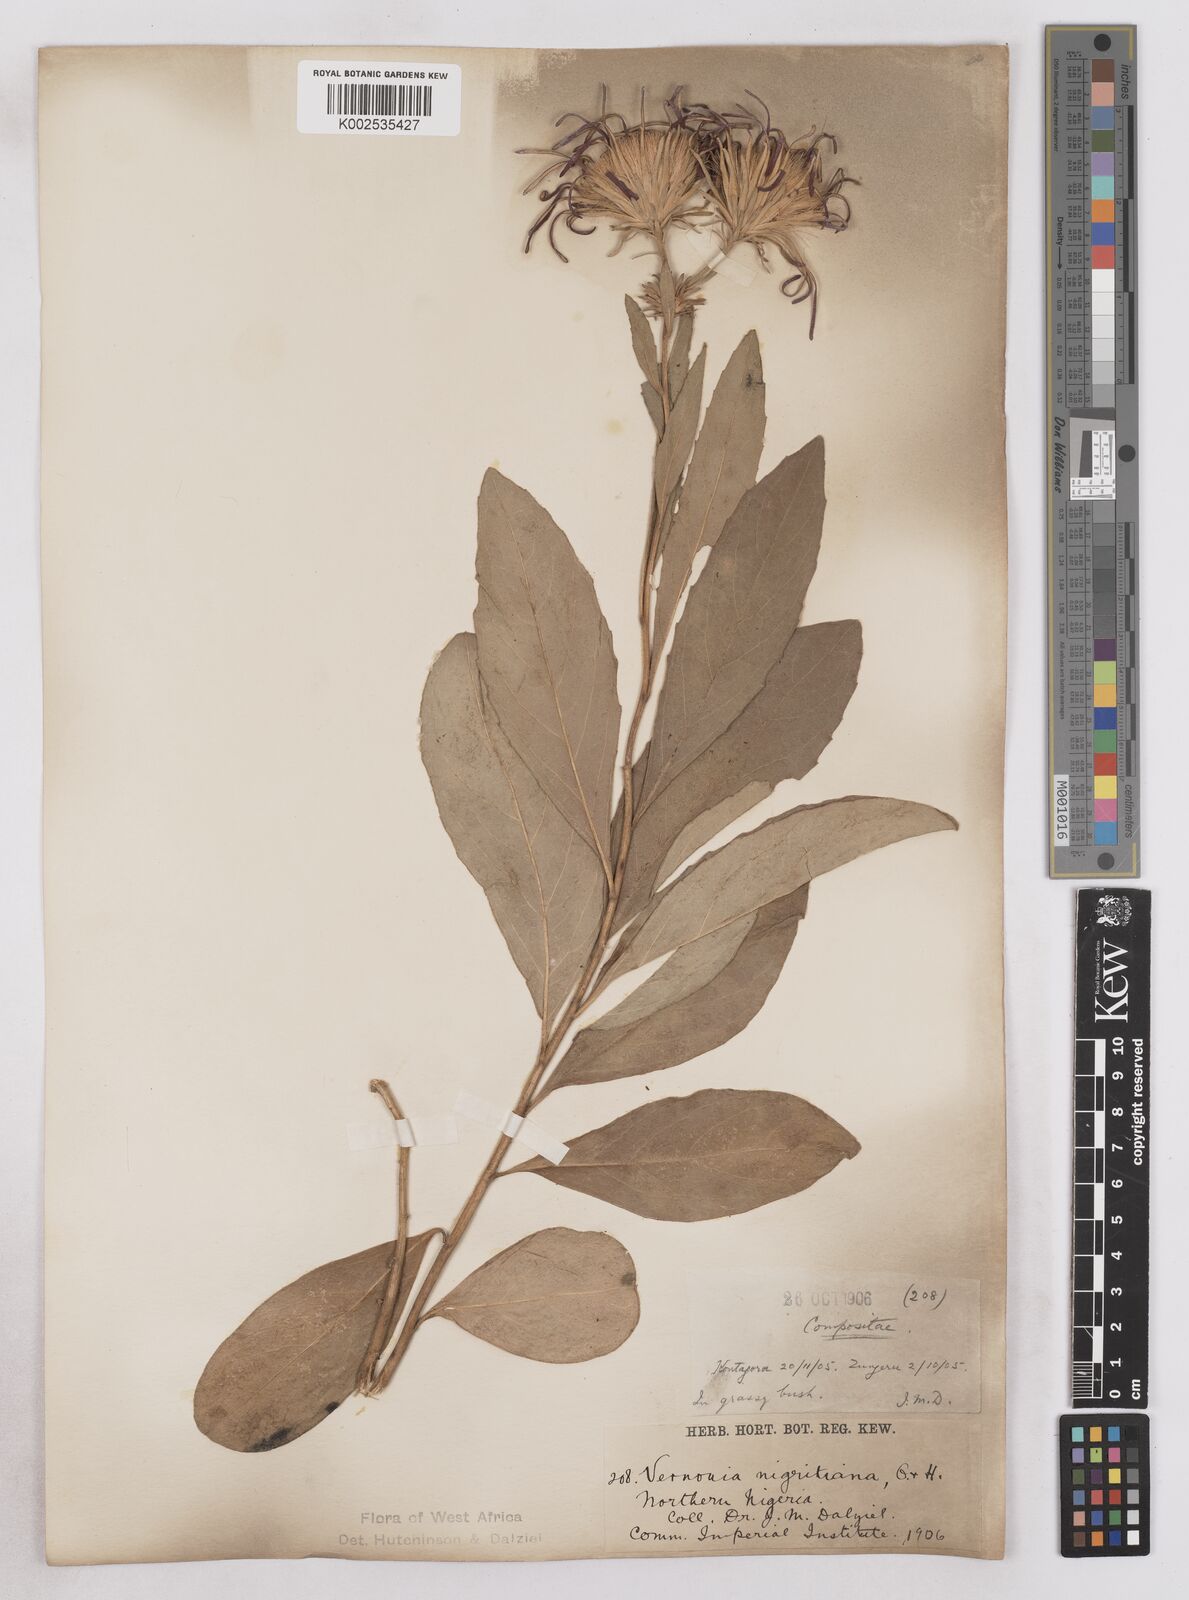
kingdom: Plantae
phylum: Tracheophyta
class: Magnoliopsida
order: Asterales
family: Asteraceae
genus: Linzia
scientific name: Linzia nigritiana
